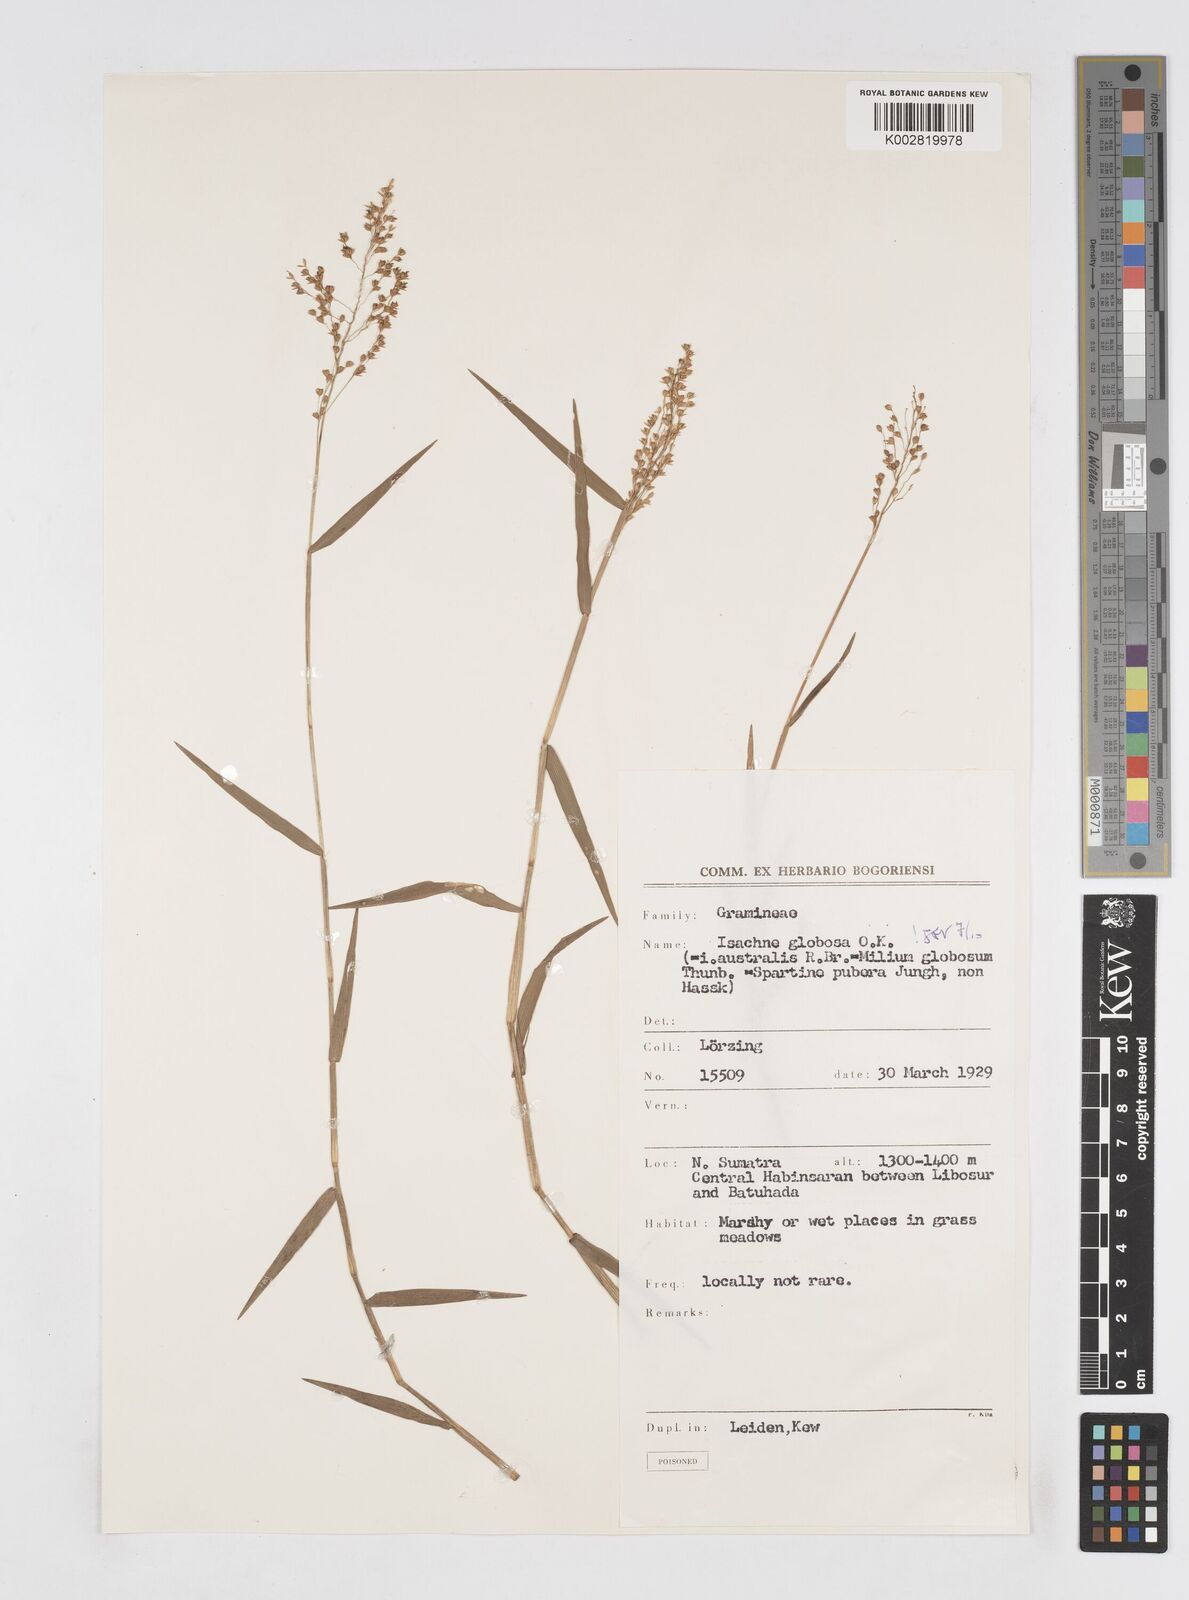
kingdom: Plantae
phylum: Tracheophyta
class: Liliopsida
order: Poales
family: Poaceae
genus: Isachne
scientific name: Isachne globosa
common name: Swamp millet
